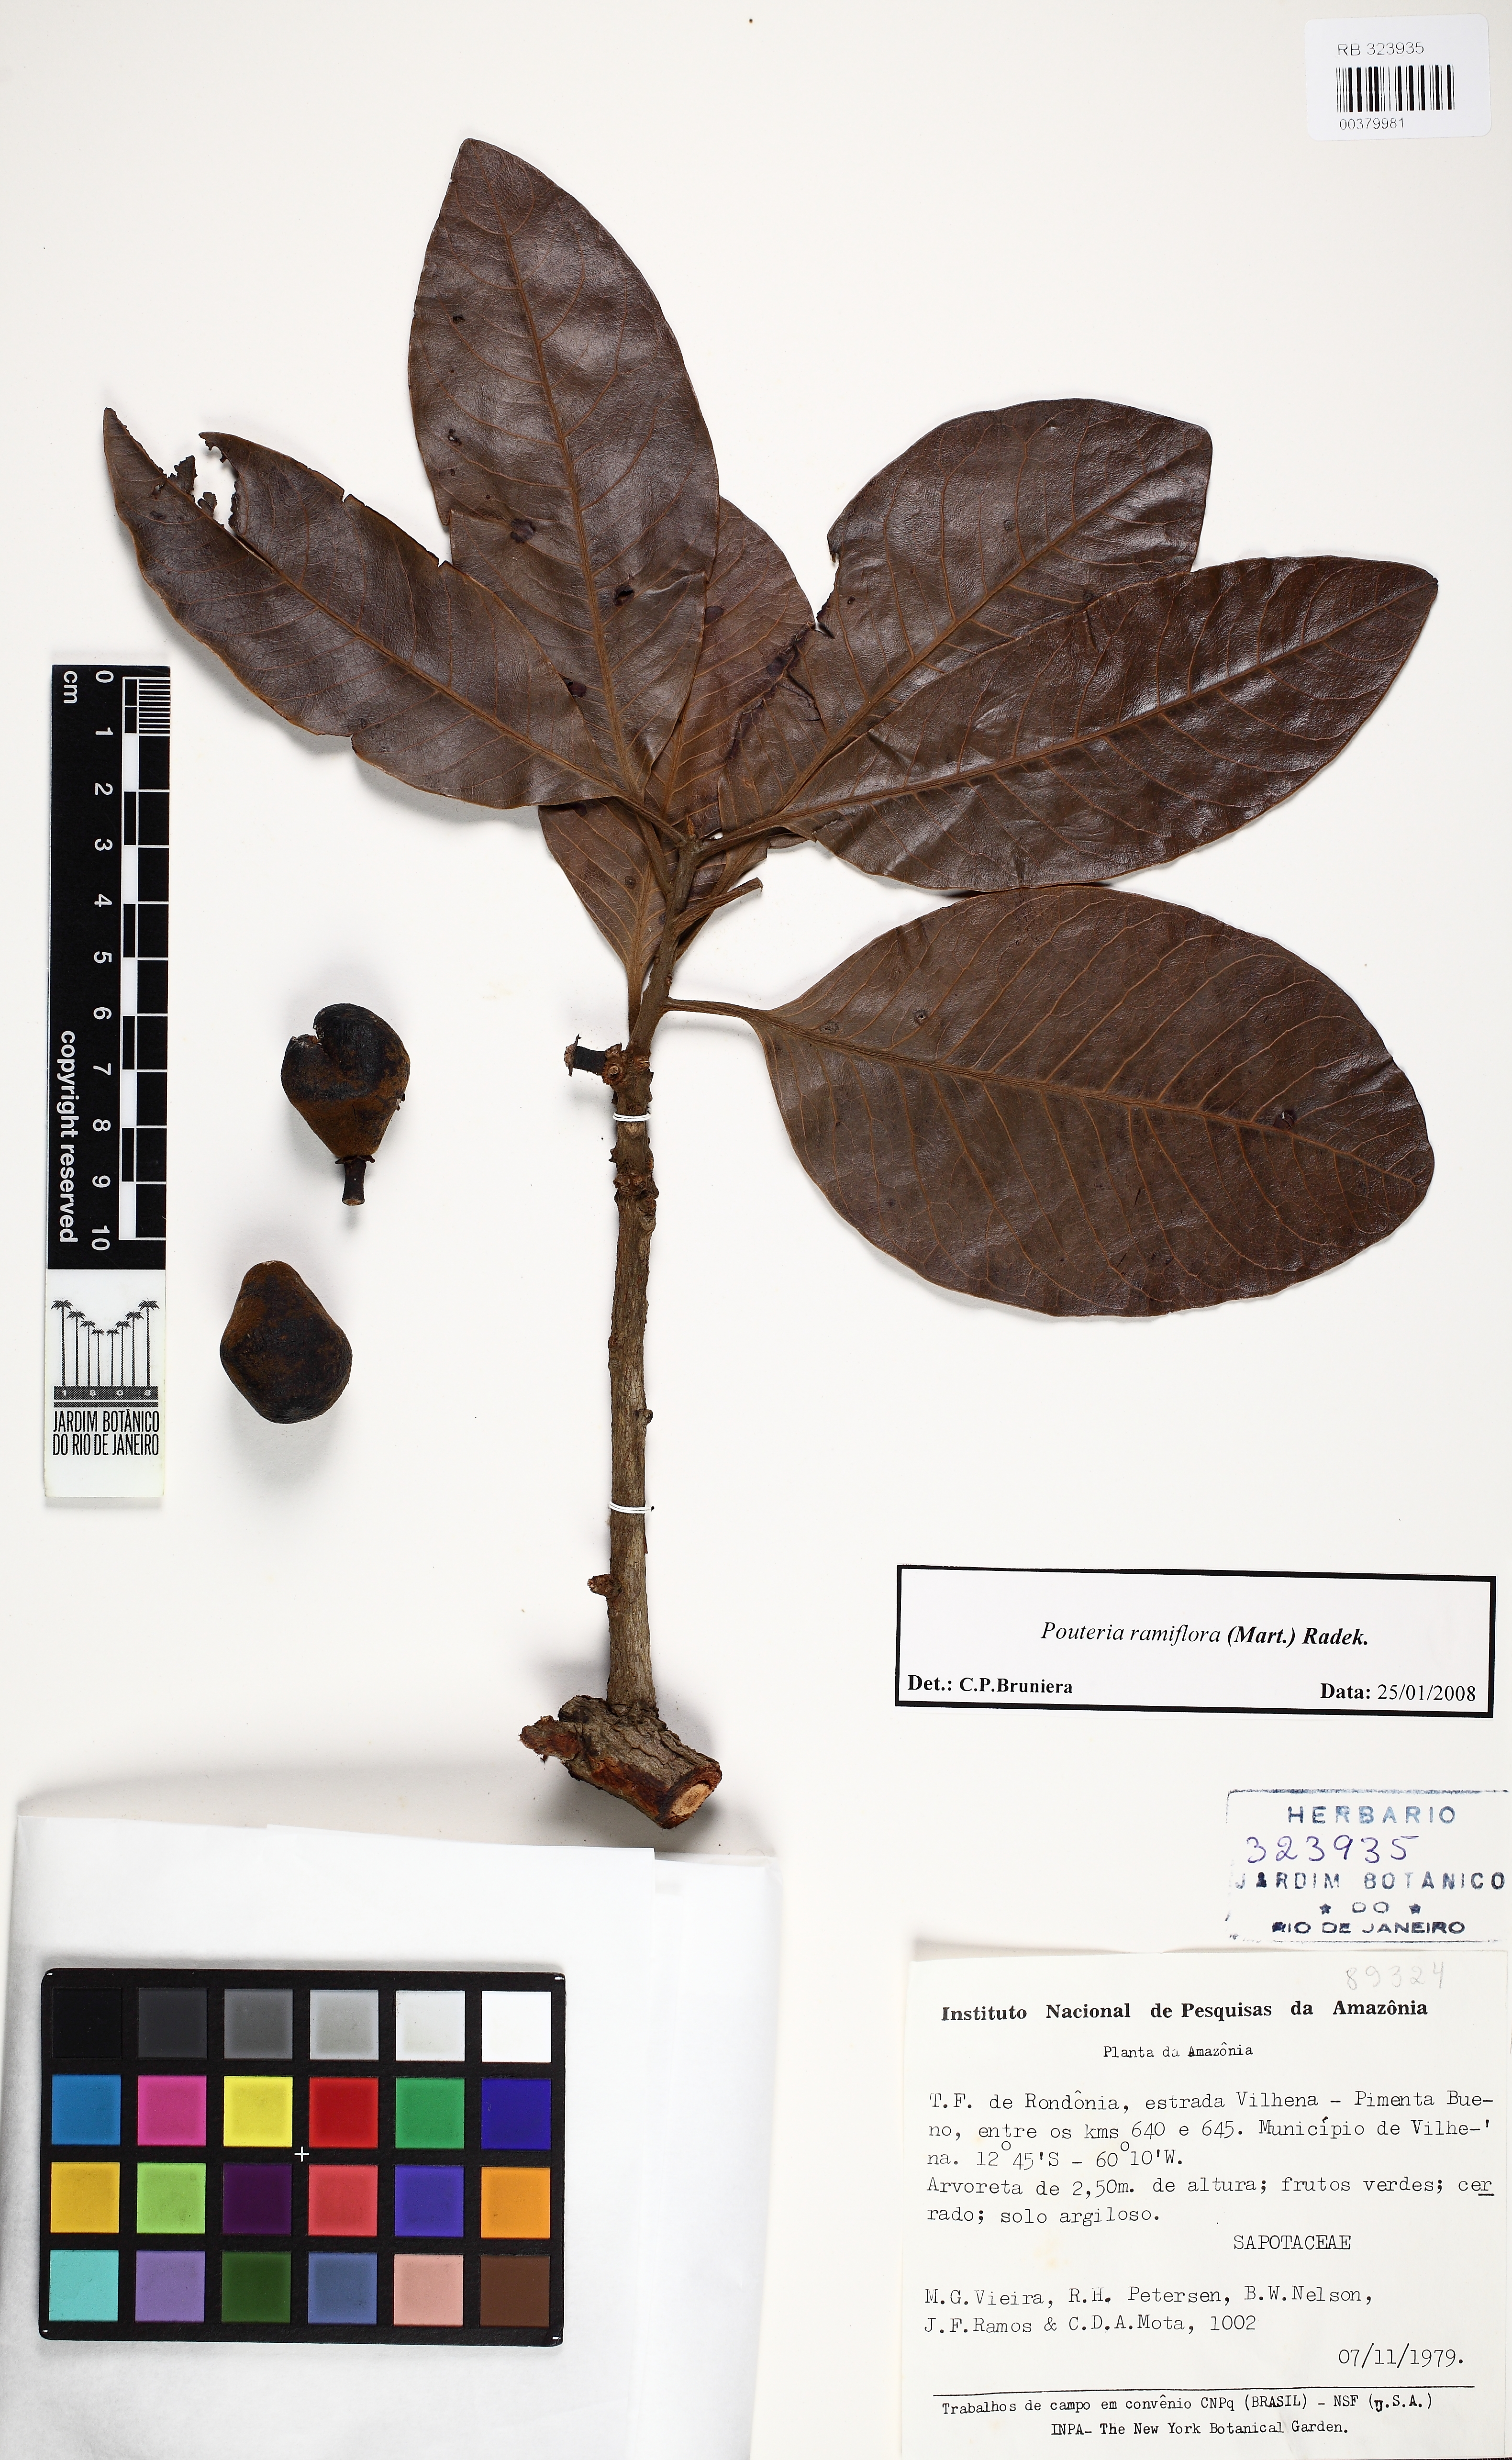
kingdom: Plantae
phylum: Tracheophyta
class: Magnoliopsida
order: Ericales
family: Sapotaceae
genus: Pouteria
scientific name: Pouteria ramiflora
